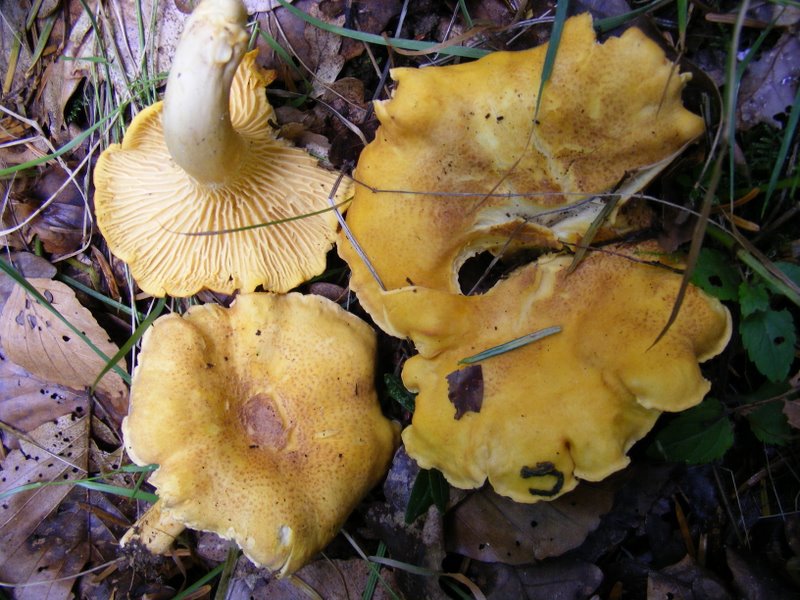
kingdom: Fungi
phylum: Basidiomycota
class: Agaricomycetes
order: Cantharellales
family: Hydnaceae
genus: Cantharellus
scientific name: Cantharellus amethysteus
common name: ametyst-kantarel
